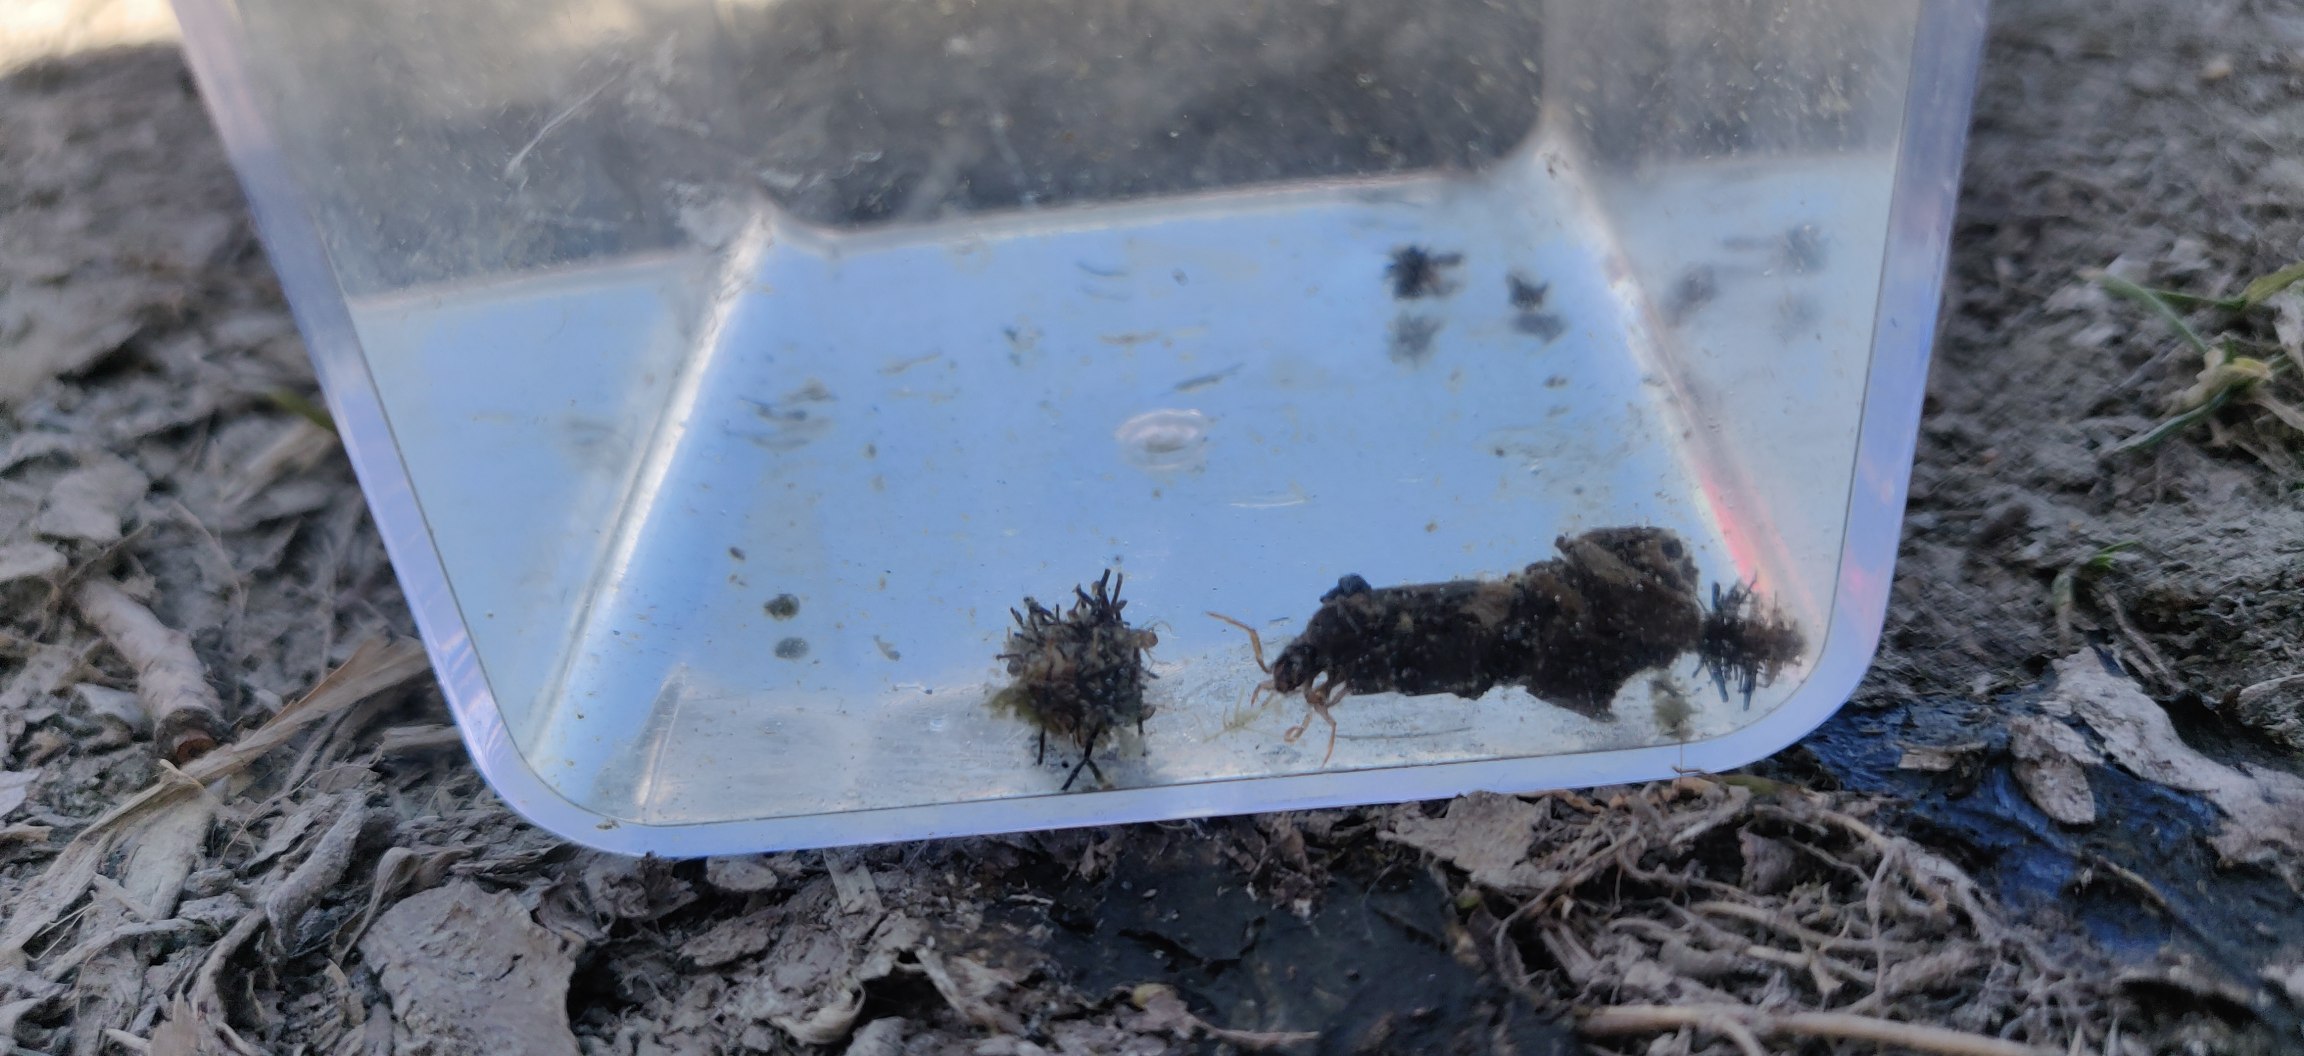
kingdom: Animalia
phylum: Arthropoda
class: Insecta
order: Trichoptera
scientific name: Trichoptera
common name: Vårfluer
